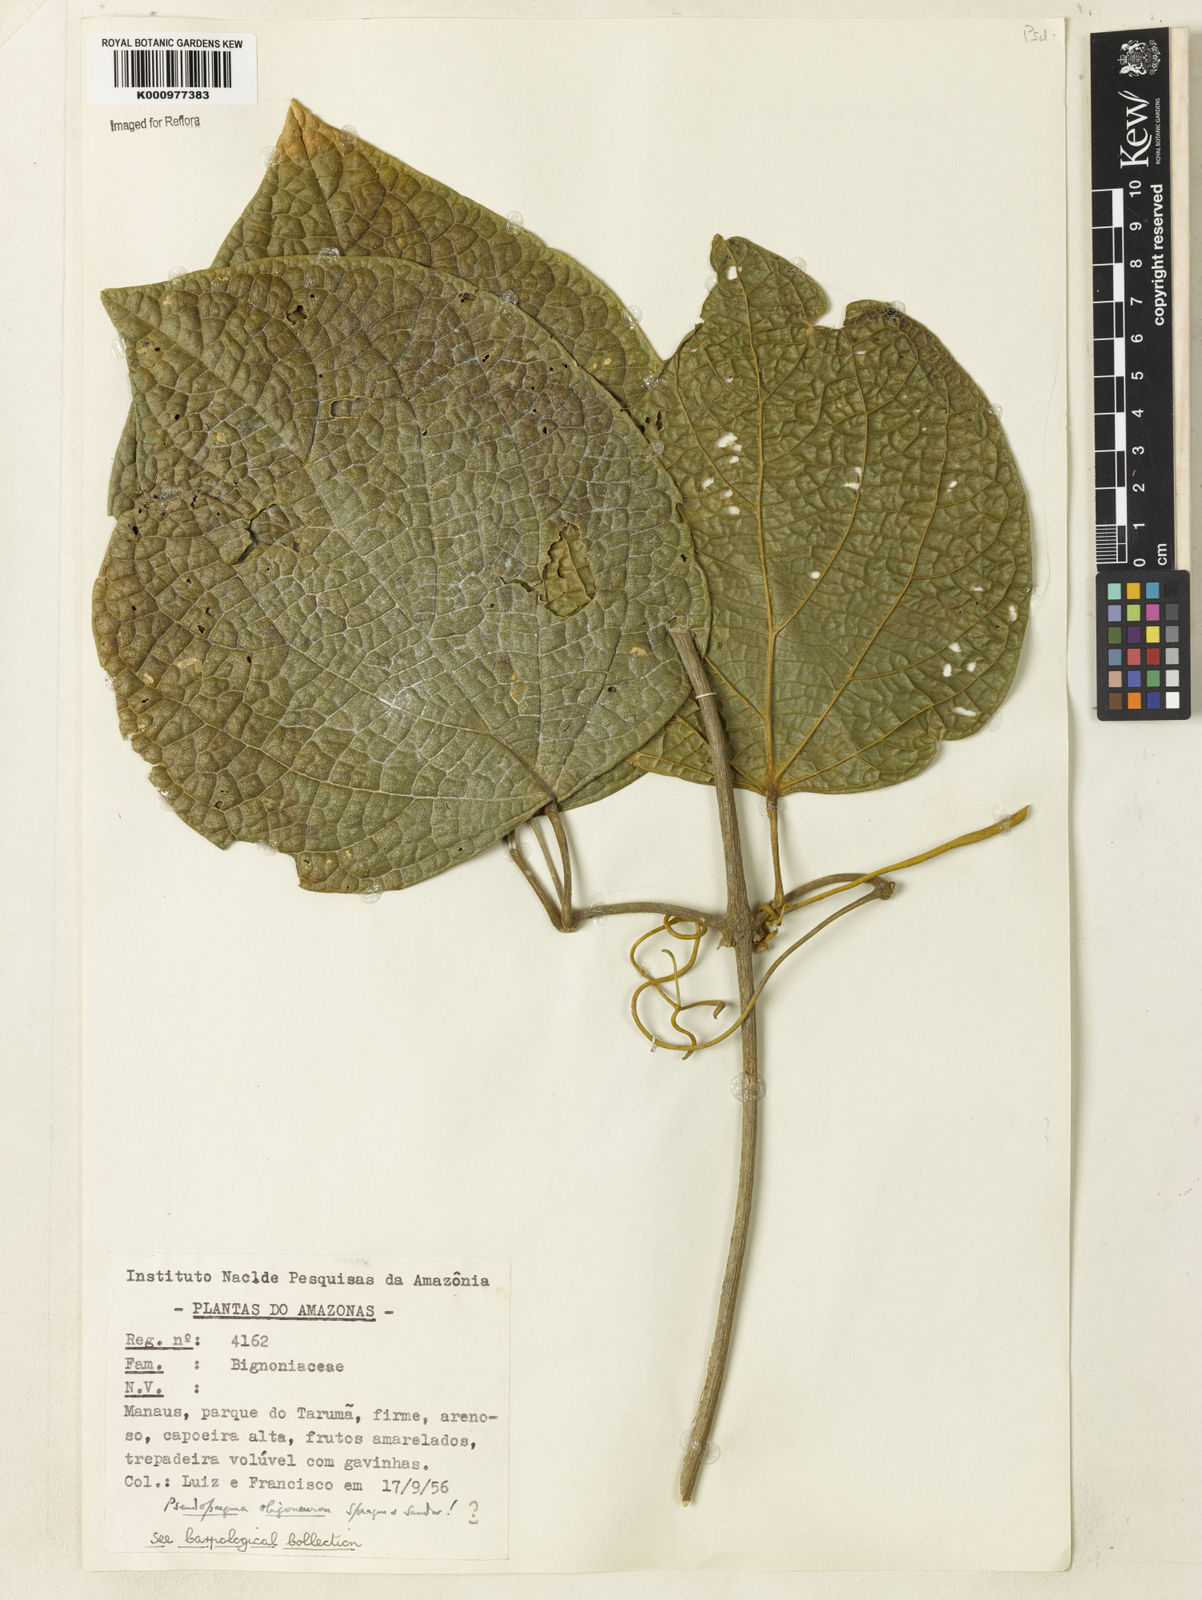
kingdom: Plantae
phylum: Tracheophyta
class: Magnoliopsida
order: Lamiales
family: Bignoniaceae
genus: Anemopaegma
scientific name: Anemopaegma oligoneuron
